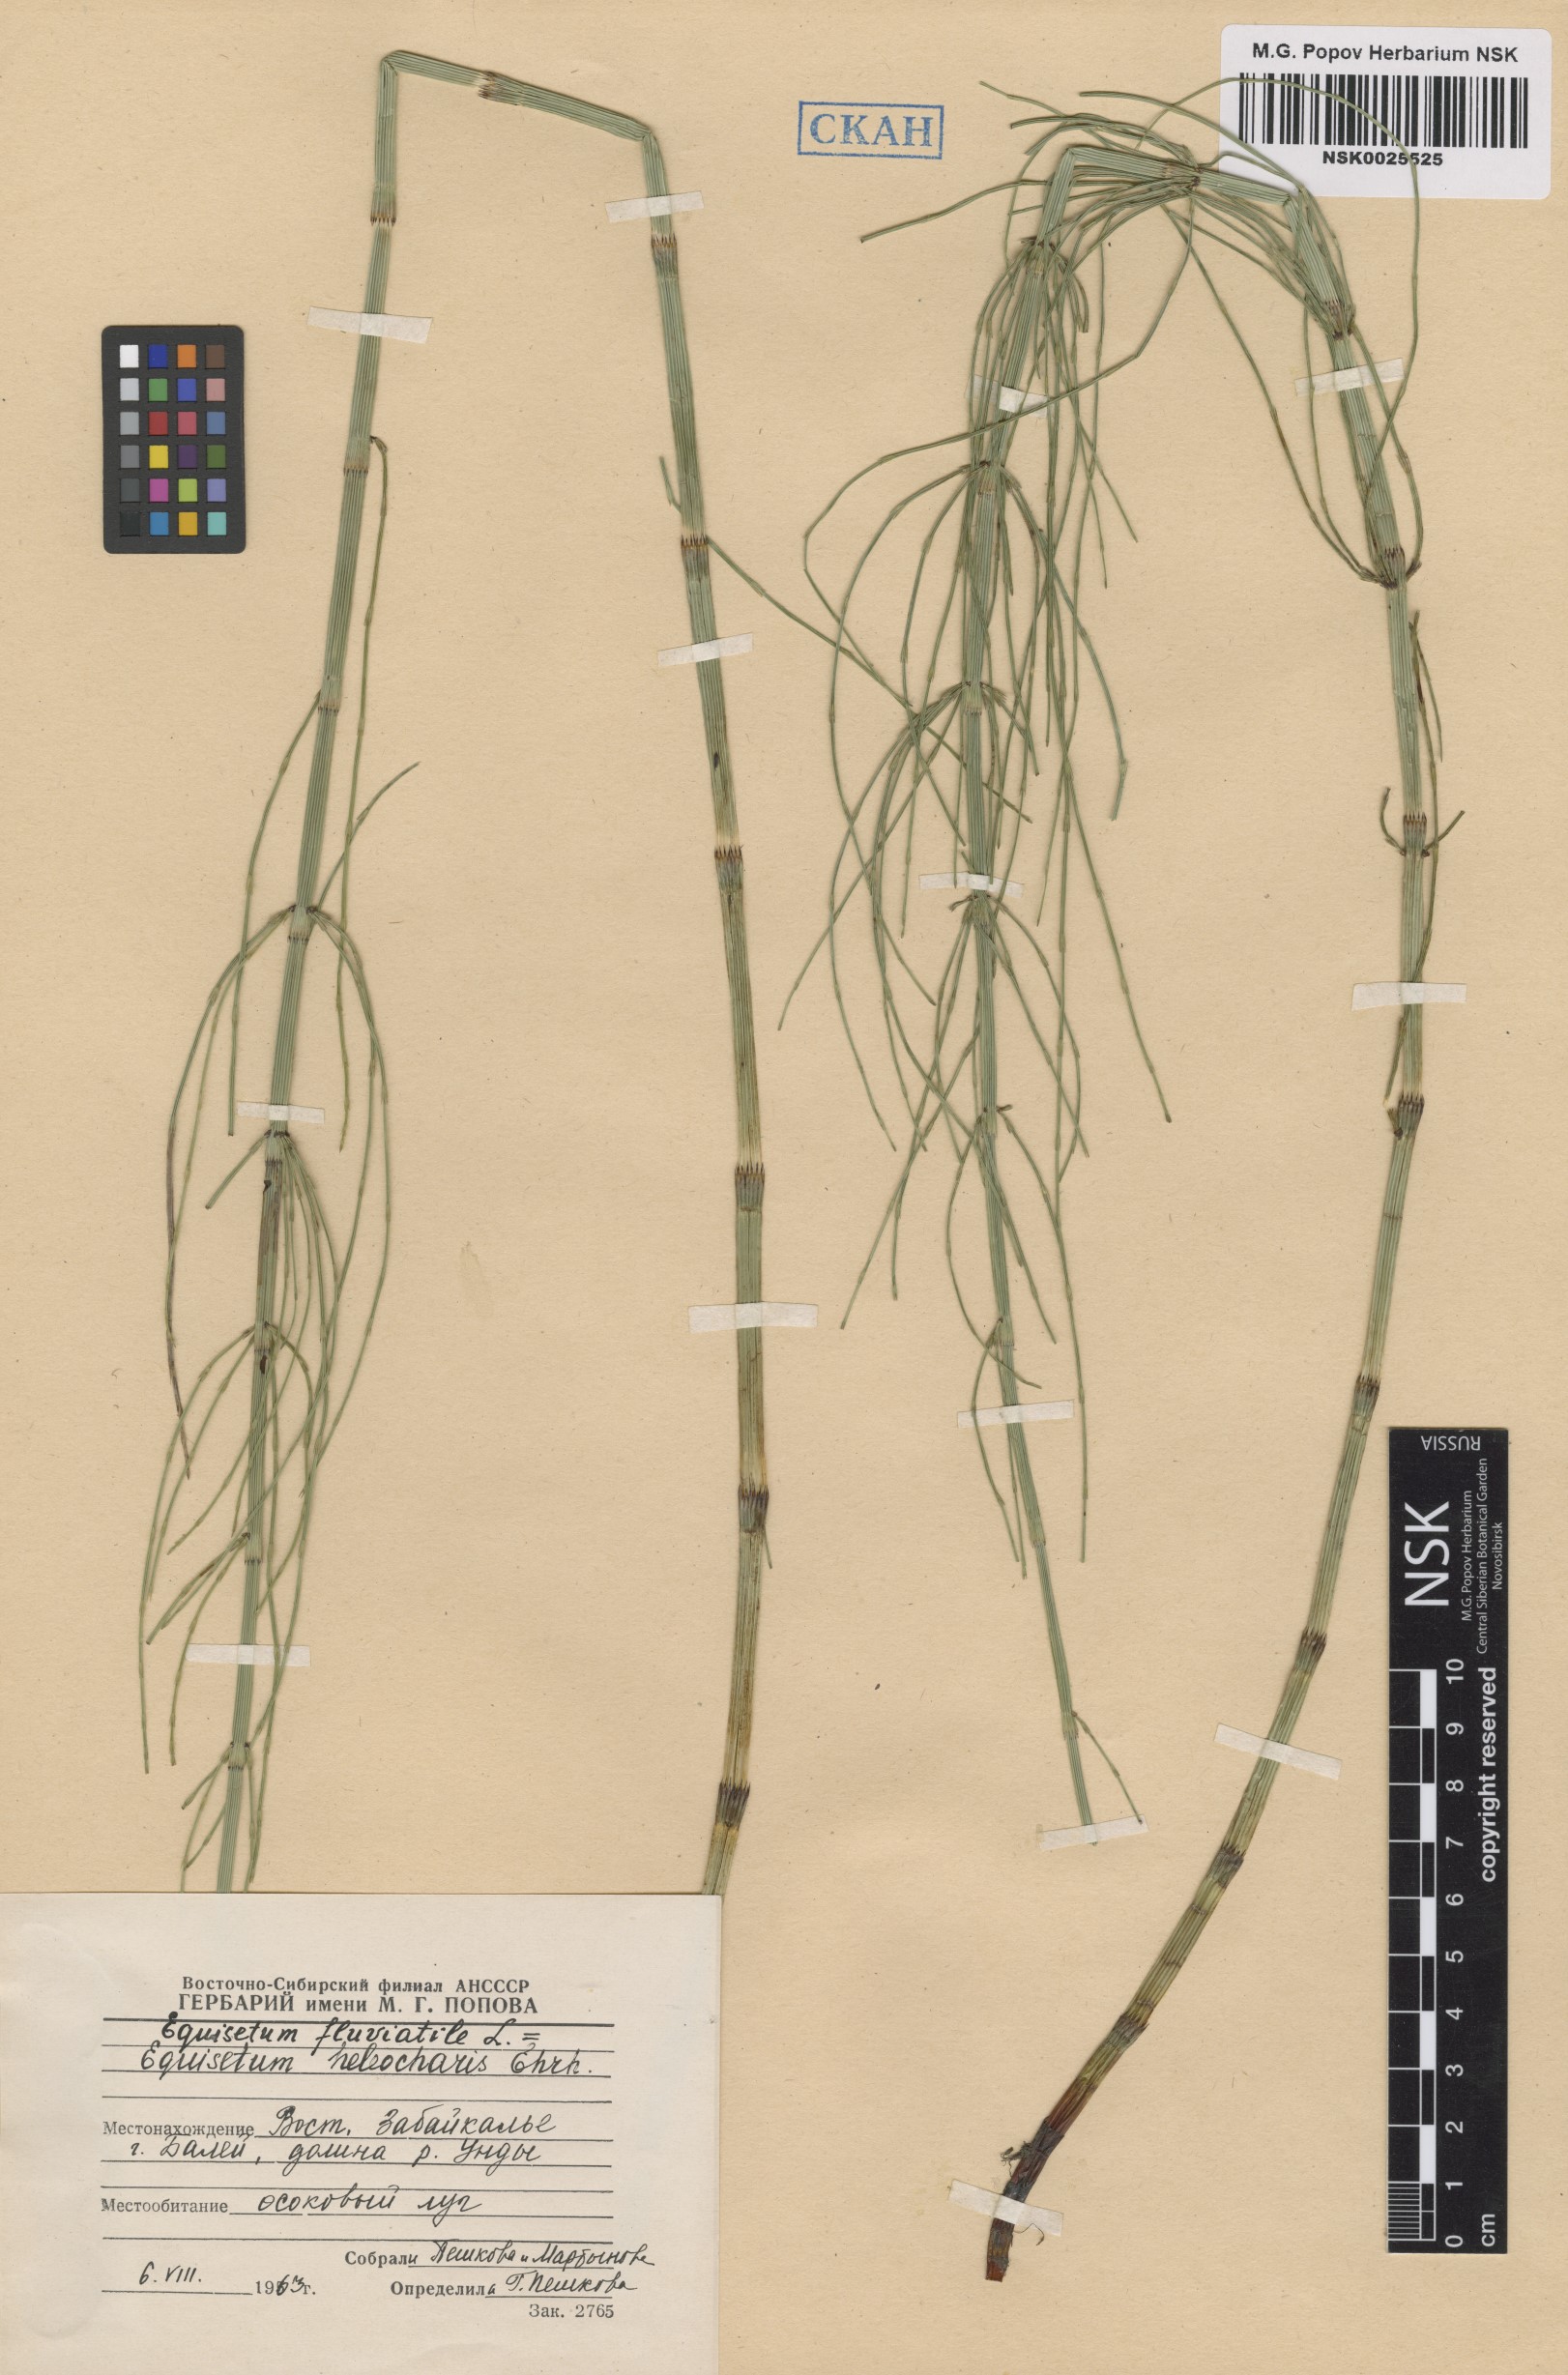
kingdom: Plantae
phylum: Tracheophyta
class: Polypodiopsida
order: Equisetales
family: Equisetaceae
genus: Equisetum
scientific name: Equisetum fluviatile
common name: Water horsetail
